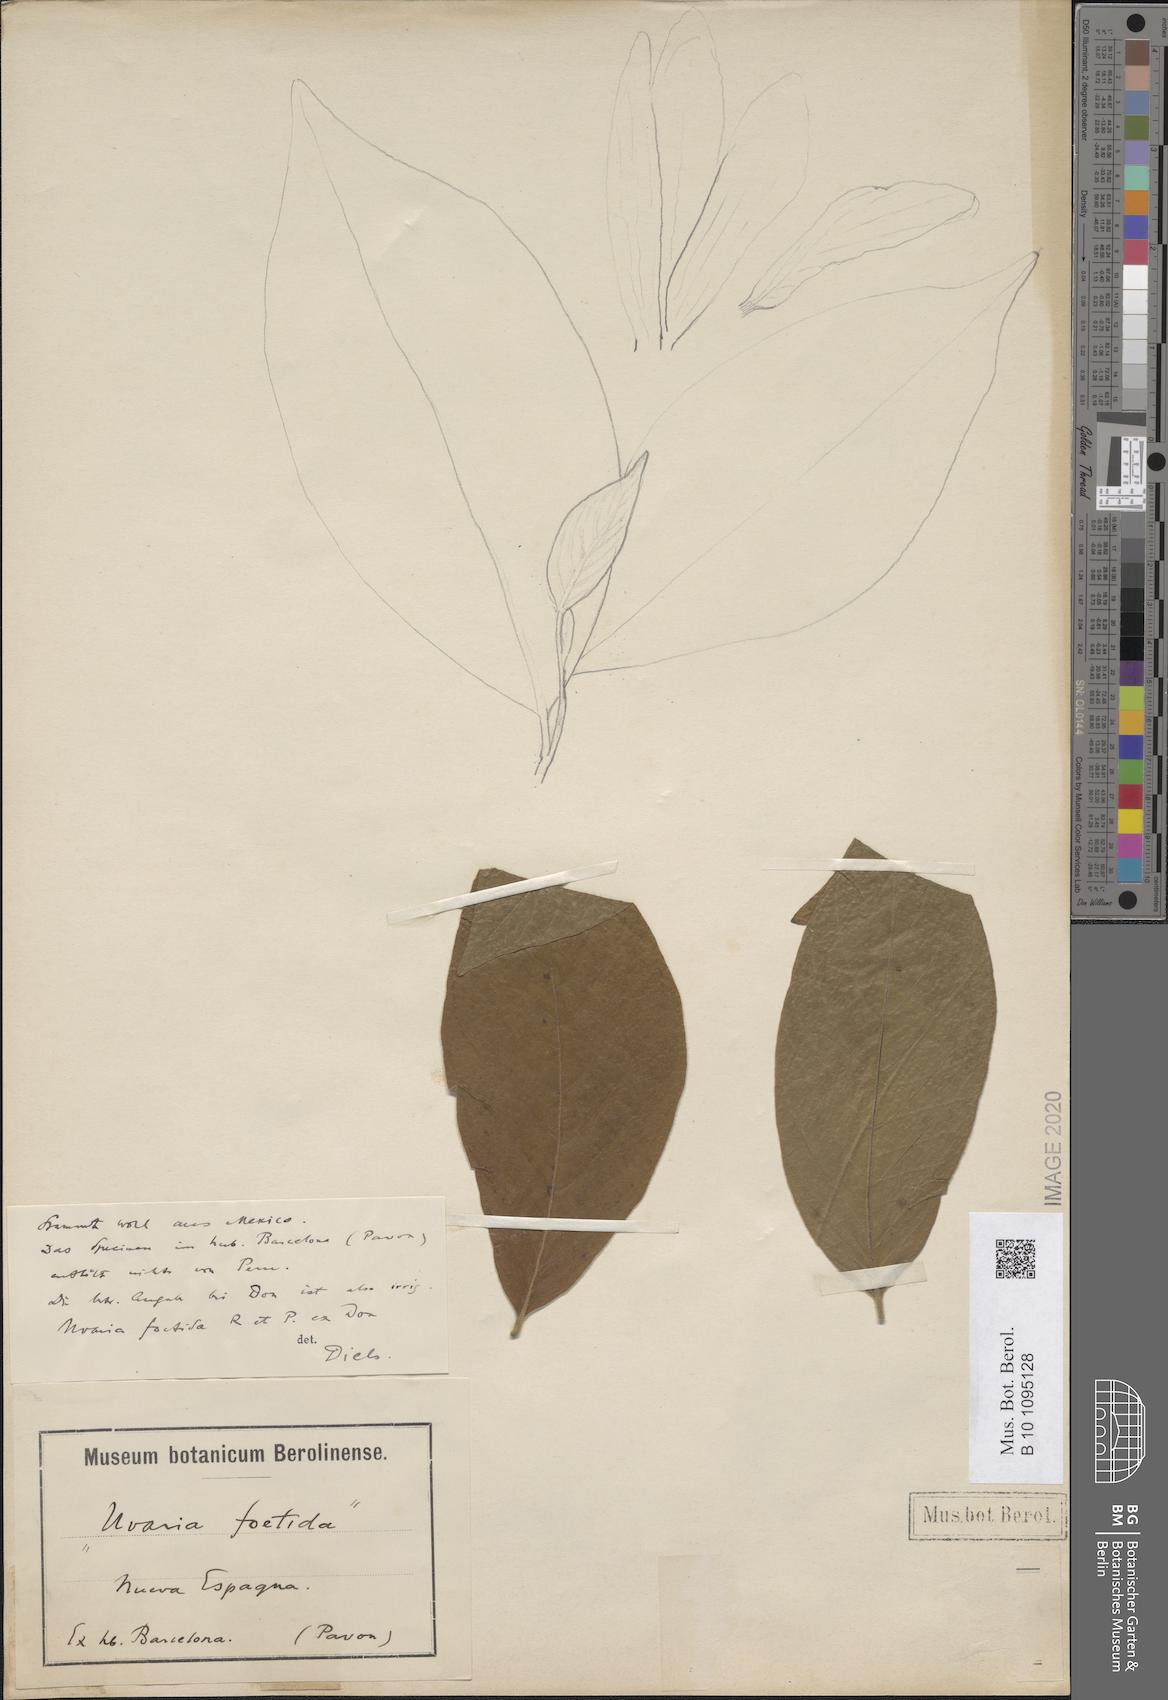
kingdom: Plantae
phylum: Tracheophyta
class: Magnoliopsida
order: Magnoliales
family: Annonaceae
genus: Uvaria
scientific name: Uvaria foetida
